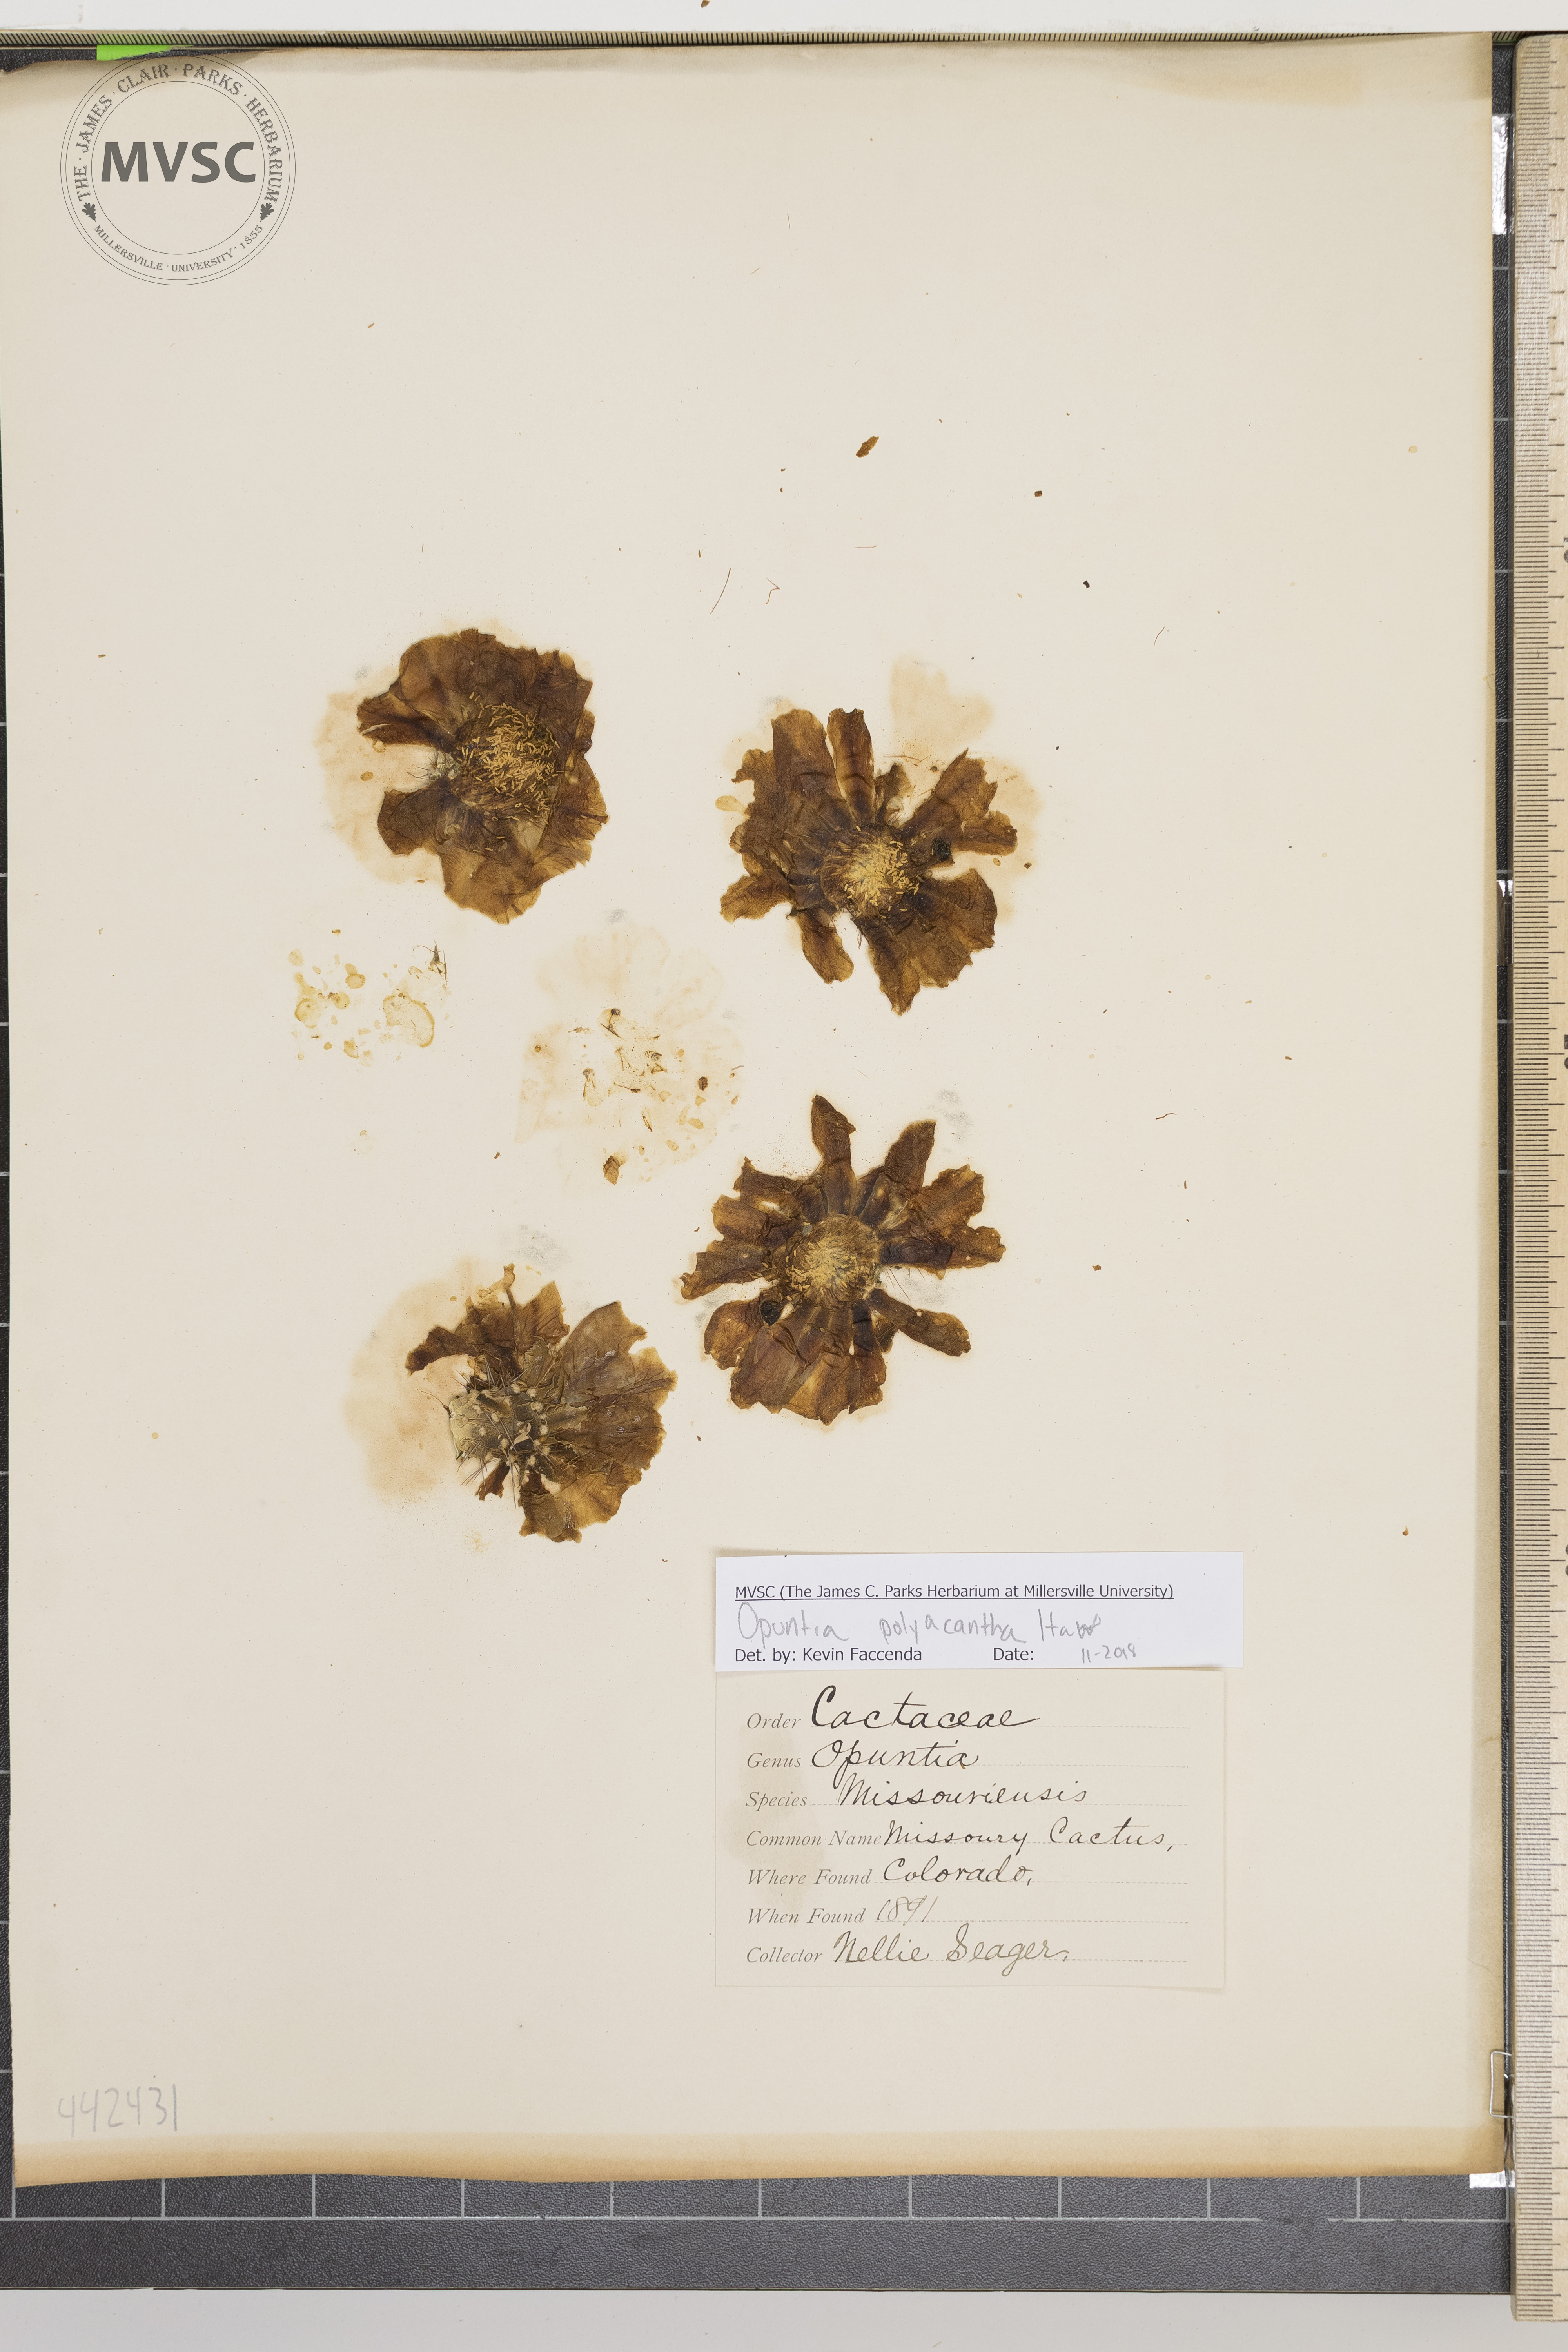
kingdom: Plantae
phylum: Tracheophyta
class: Magnoliopsida
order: Caryophyllales
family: Cactaceae
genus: Opuntia
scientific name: Opuntia polyacantha
